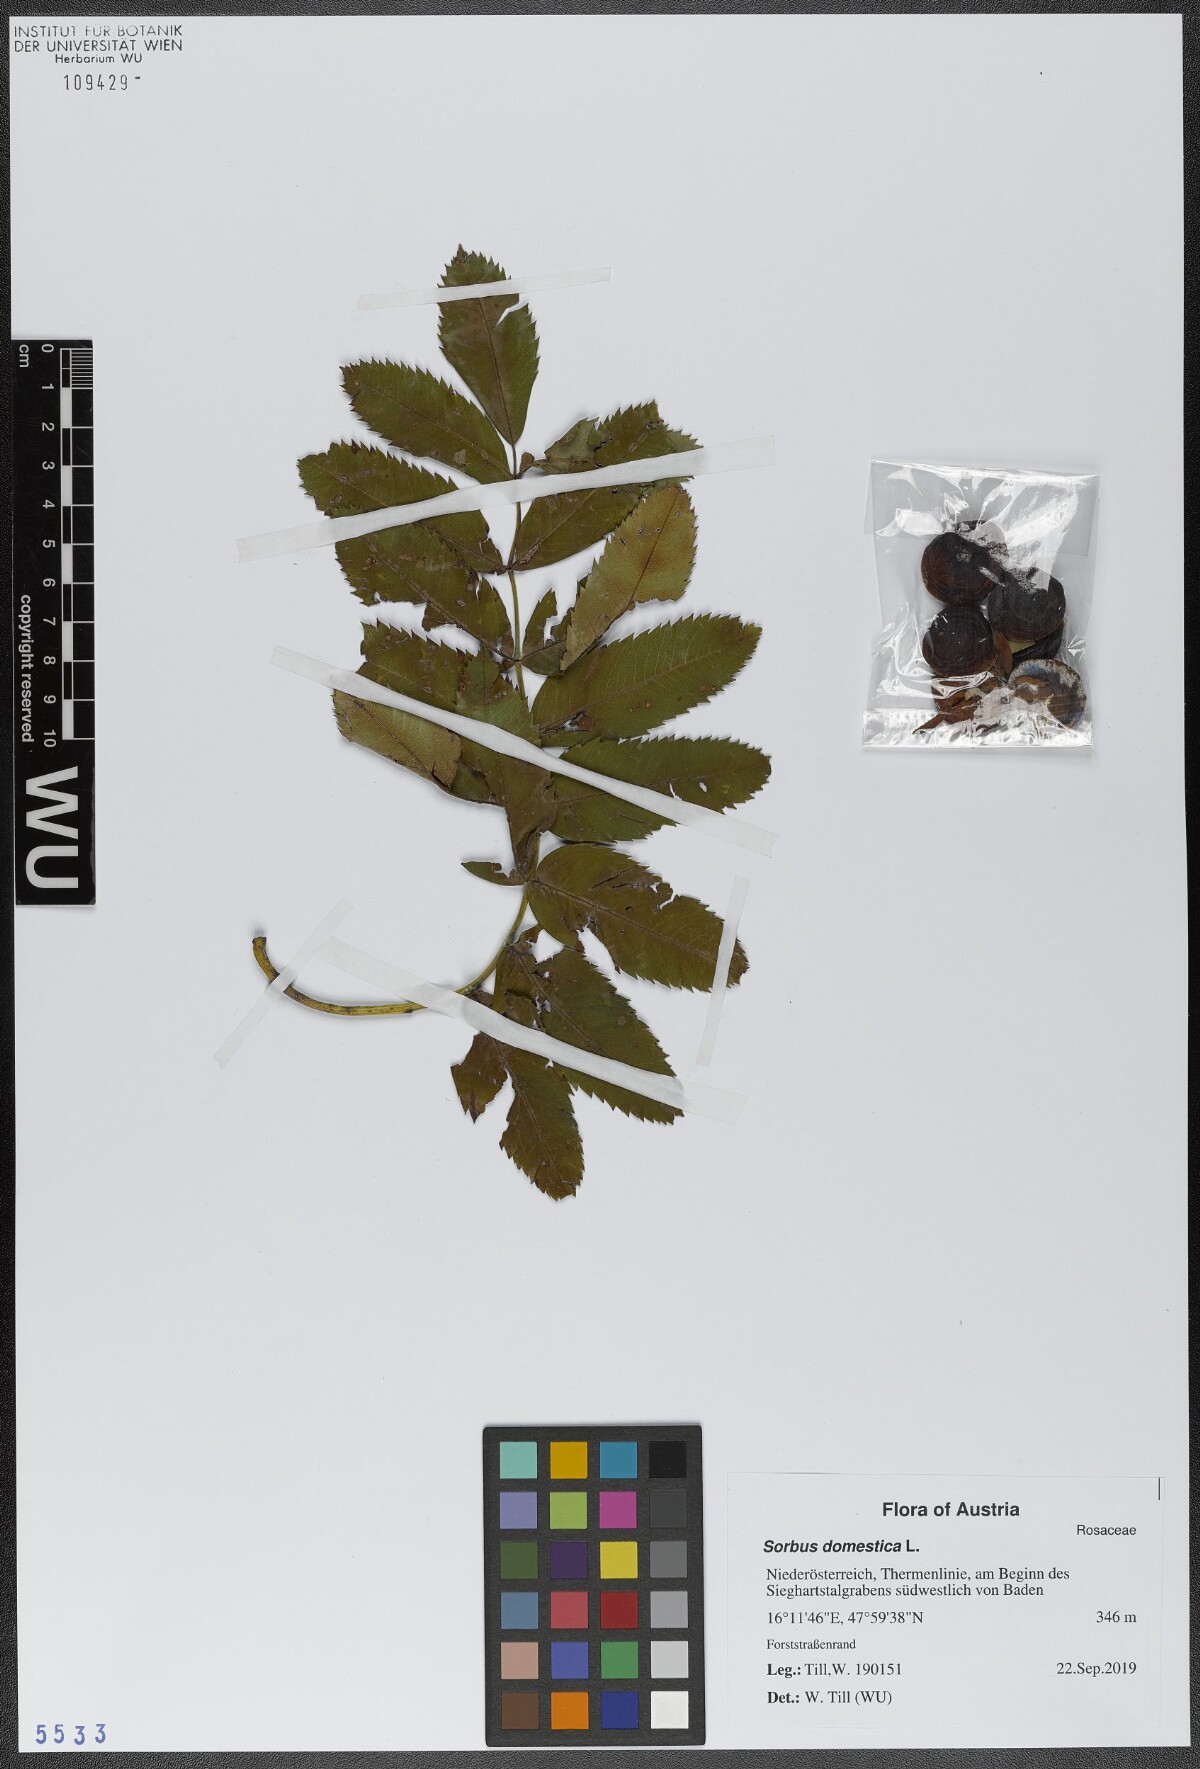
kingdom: Plantae
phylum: Tracheophyta
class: Magnoliopsida
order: Rosales
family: Rosaceae
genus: Cormus
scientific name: Cormus domestica
